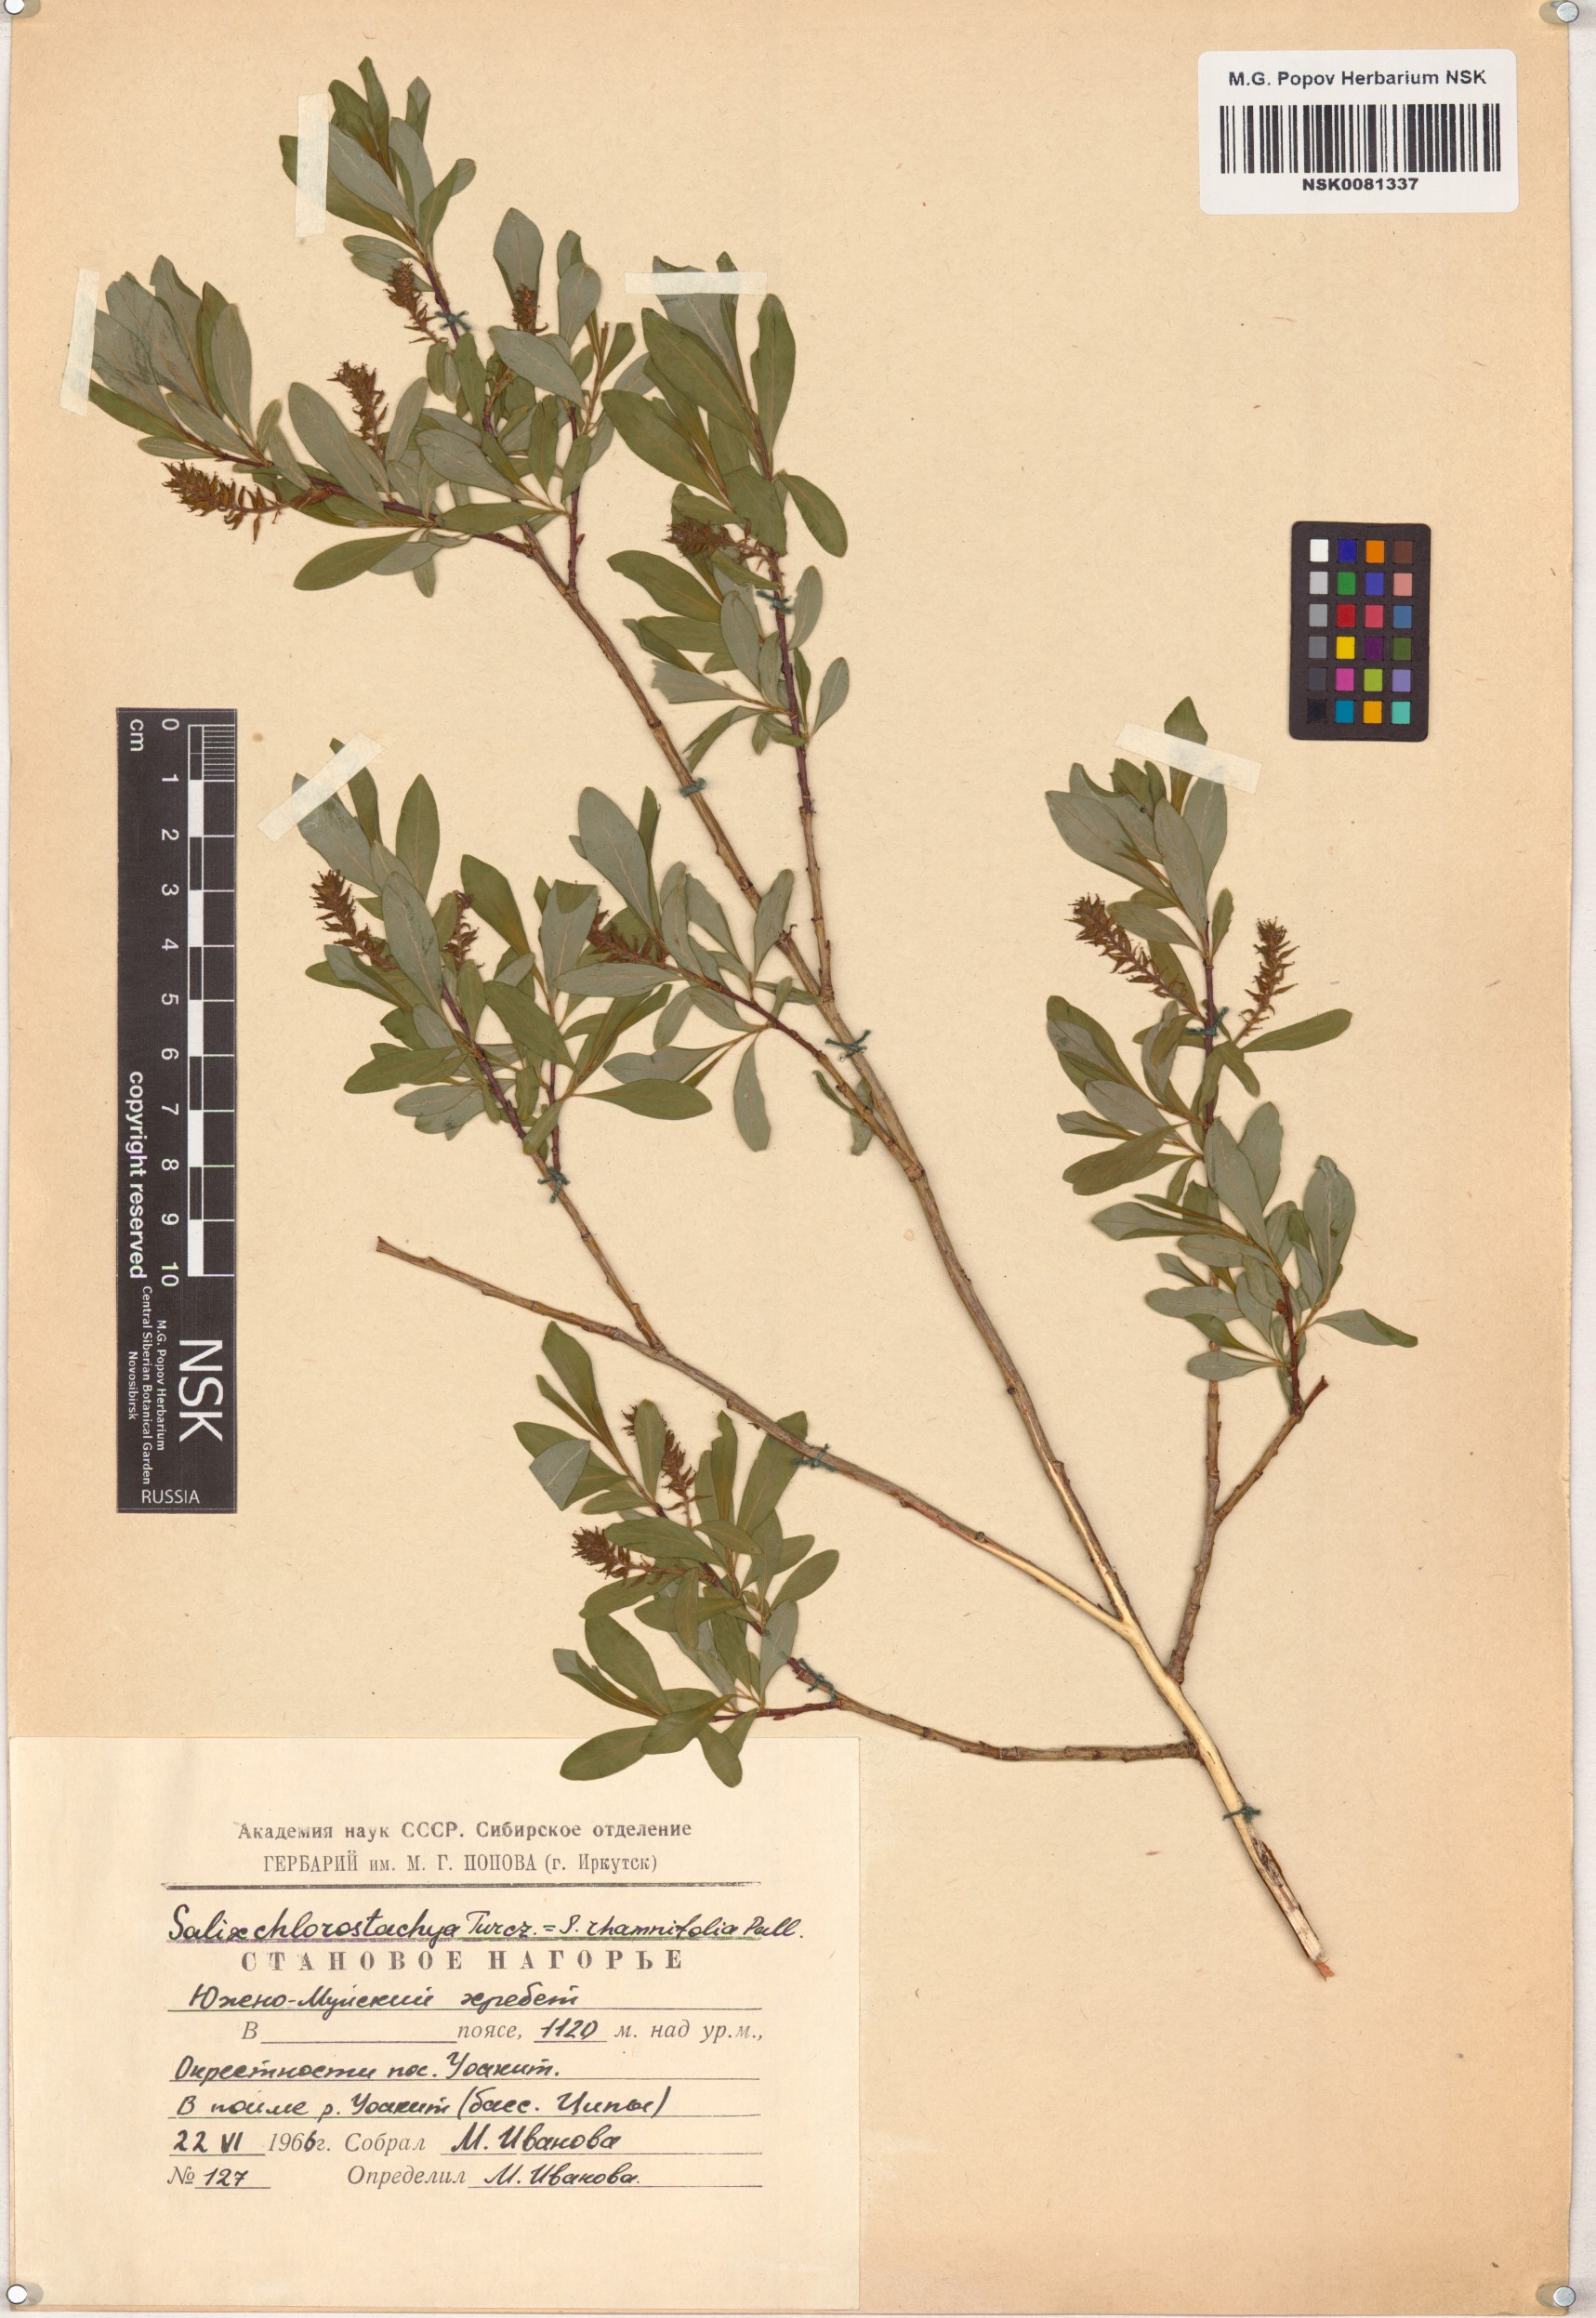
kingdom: Plantae
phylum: Tracheophyta
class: Magnoliopsida
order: Malpighiales
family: Salicaceae
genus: Salix
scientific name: Salix rhamnifolia
